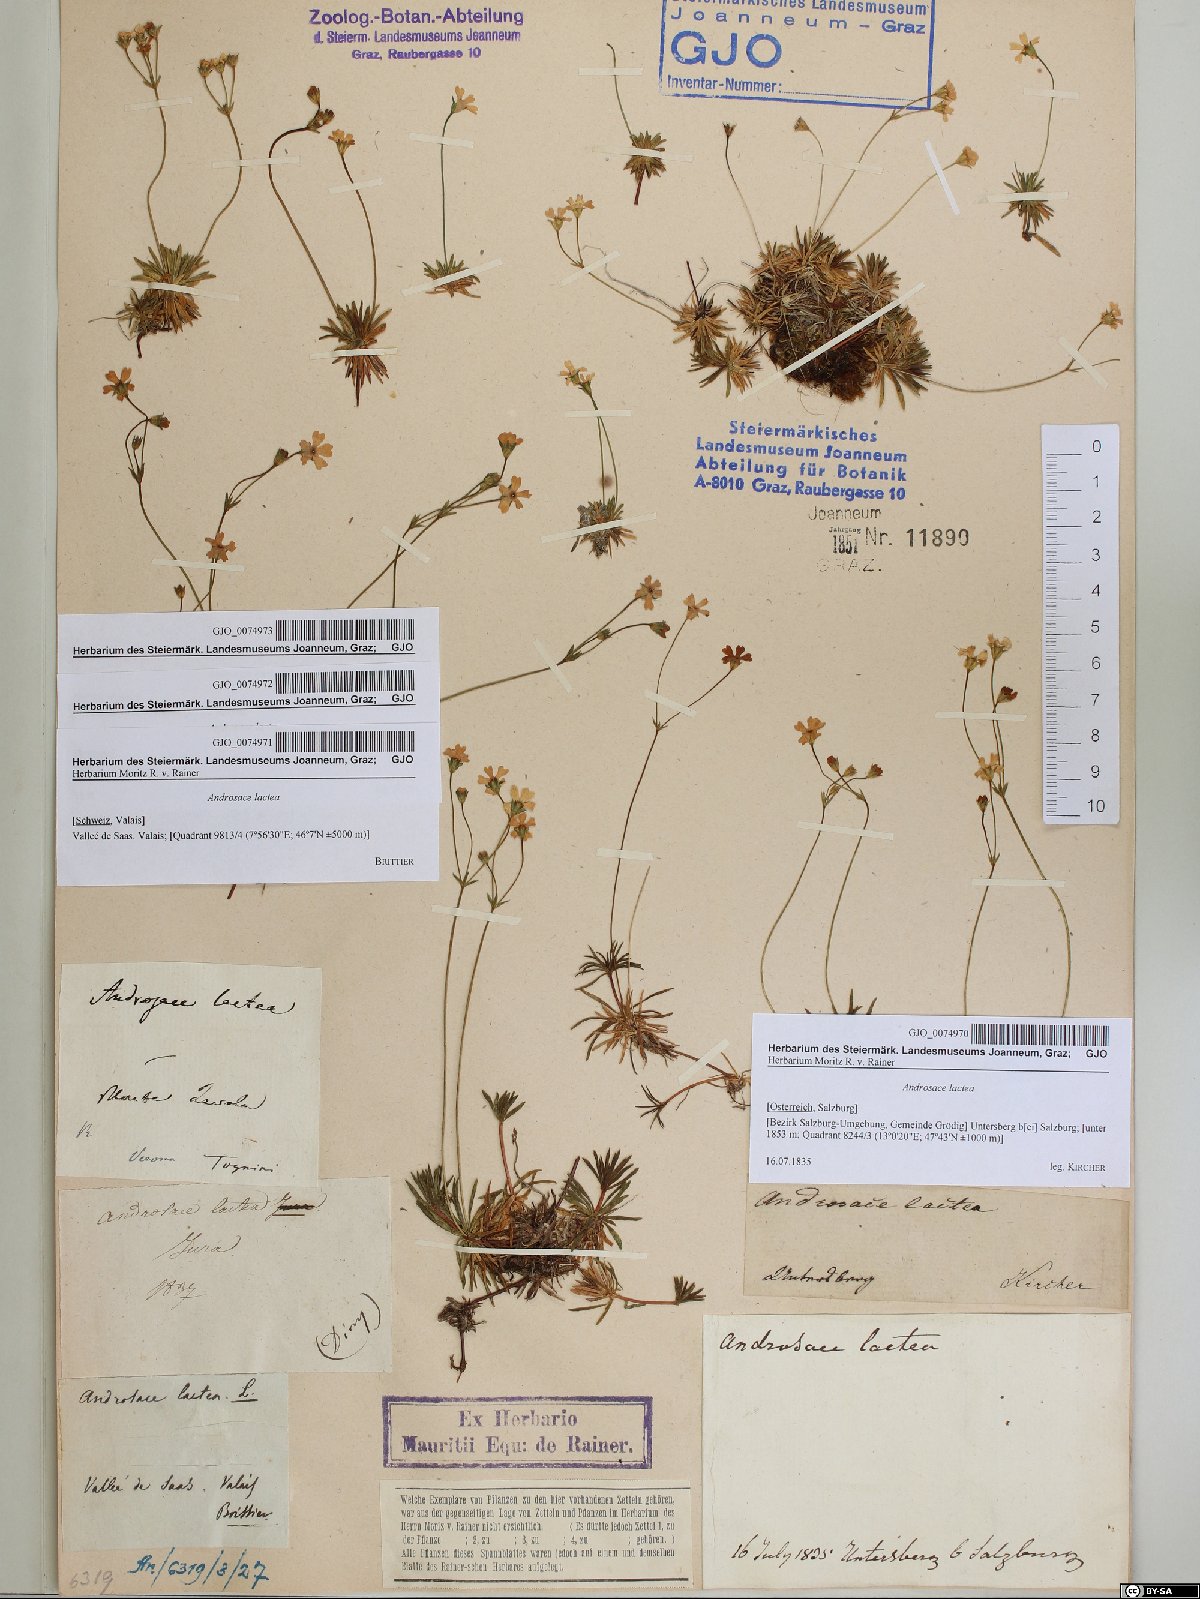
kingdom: Plantae
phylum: Tracheophyta
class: Magnoliopsida
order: Ericales
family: Primulaceae
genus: Androsace
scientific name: Androsace lactea
